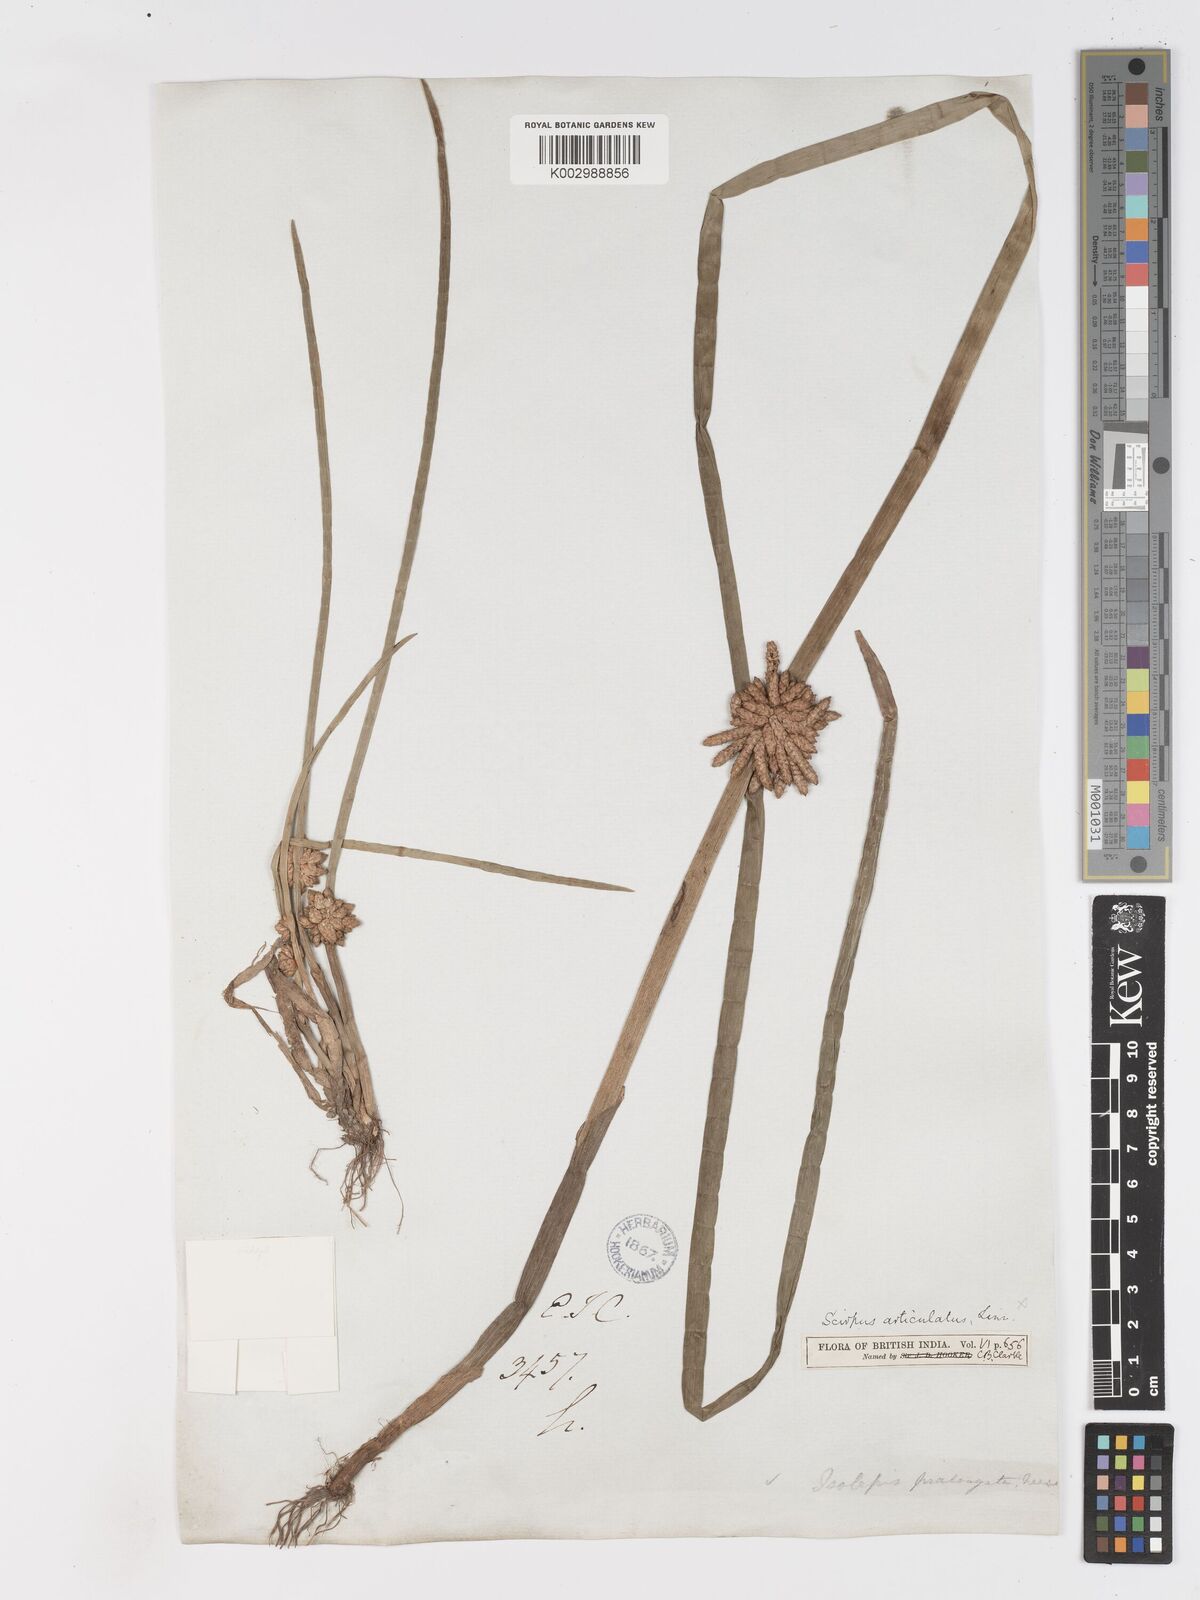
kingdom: Plantae
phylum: Tracheophyta
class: Liliopsida
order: Poales
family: Cyperaceae
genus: Schoenoplectiella
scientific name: Schoenoplectiella praelongata
